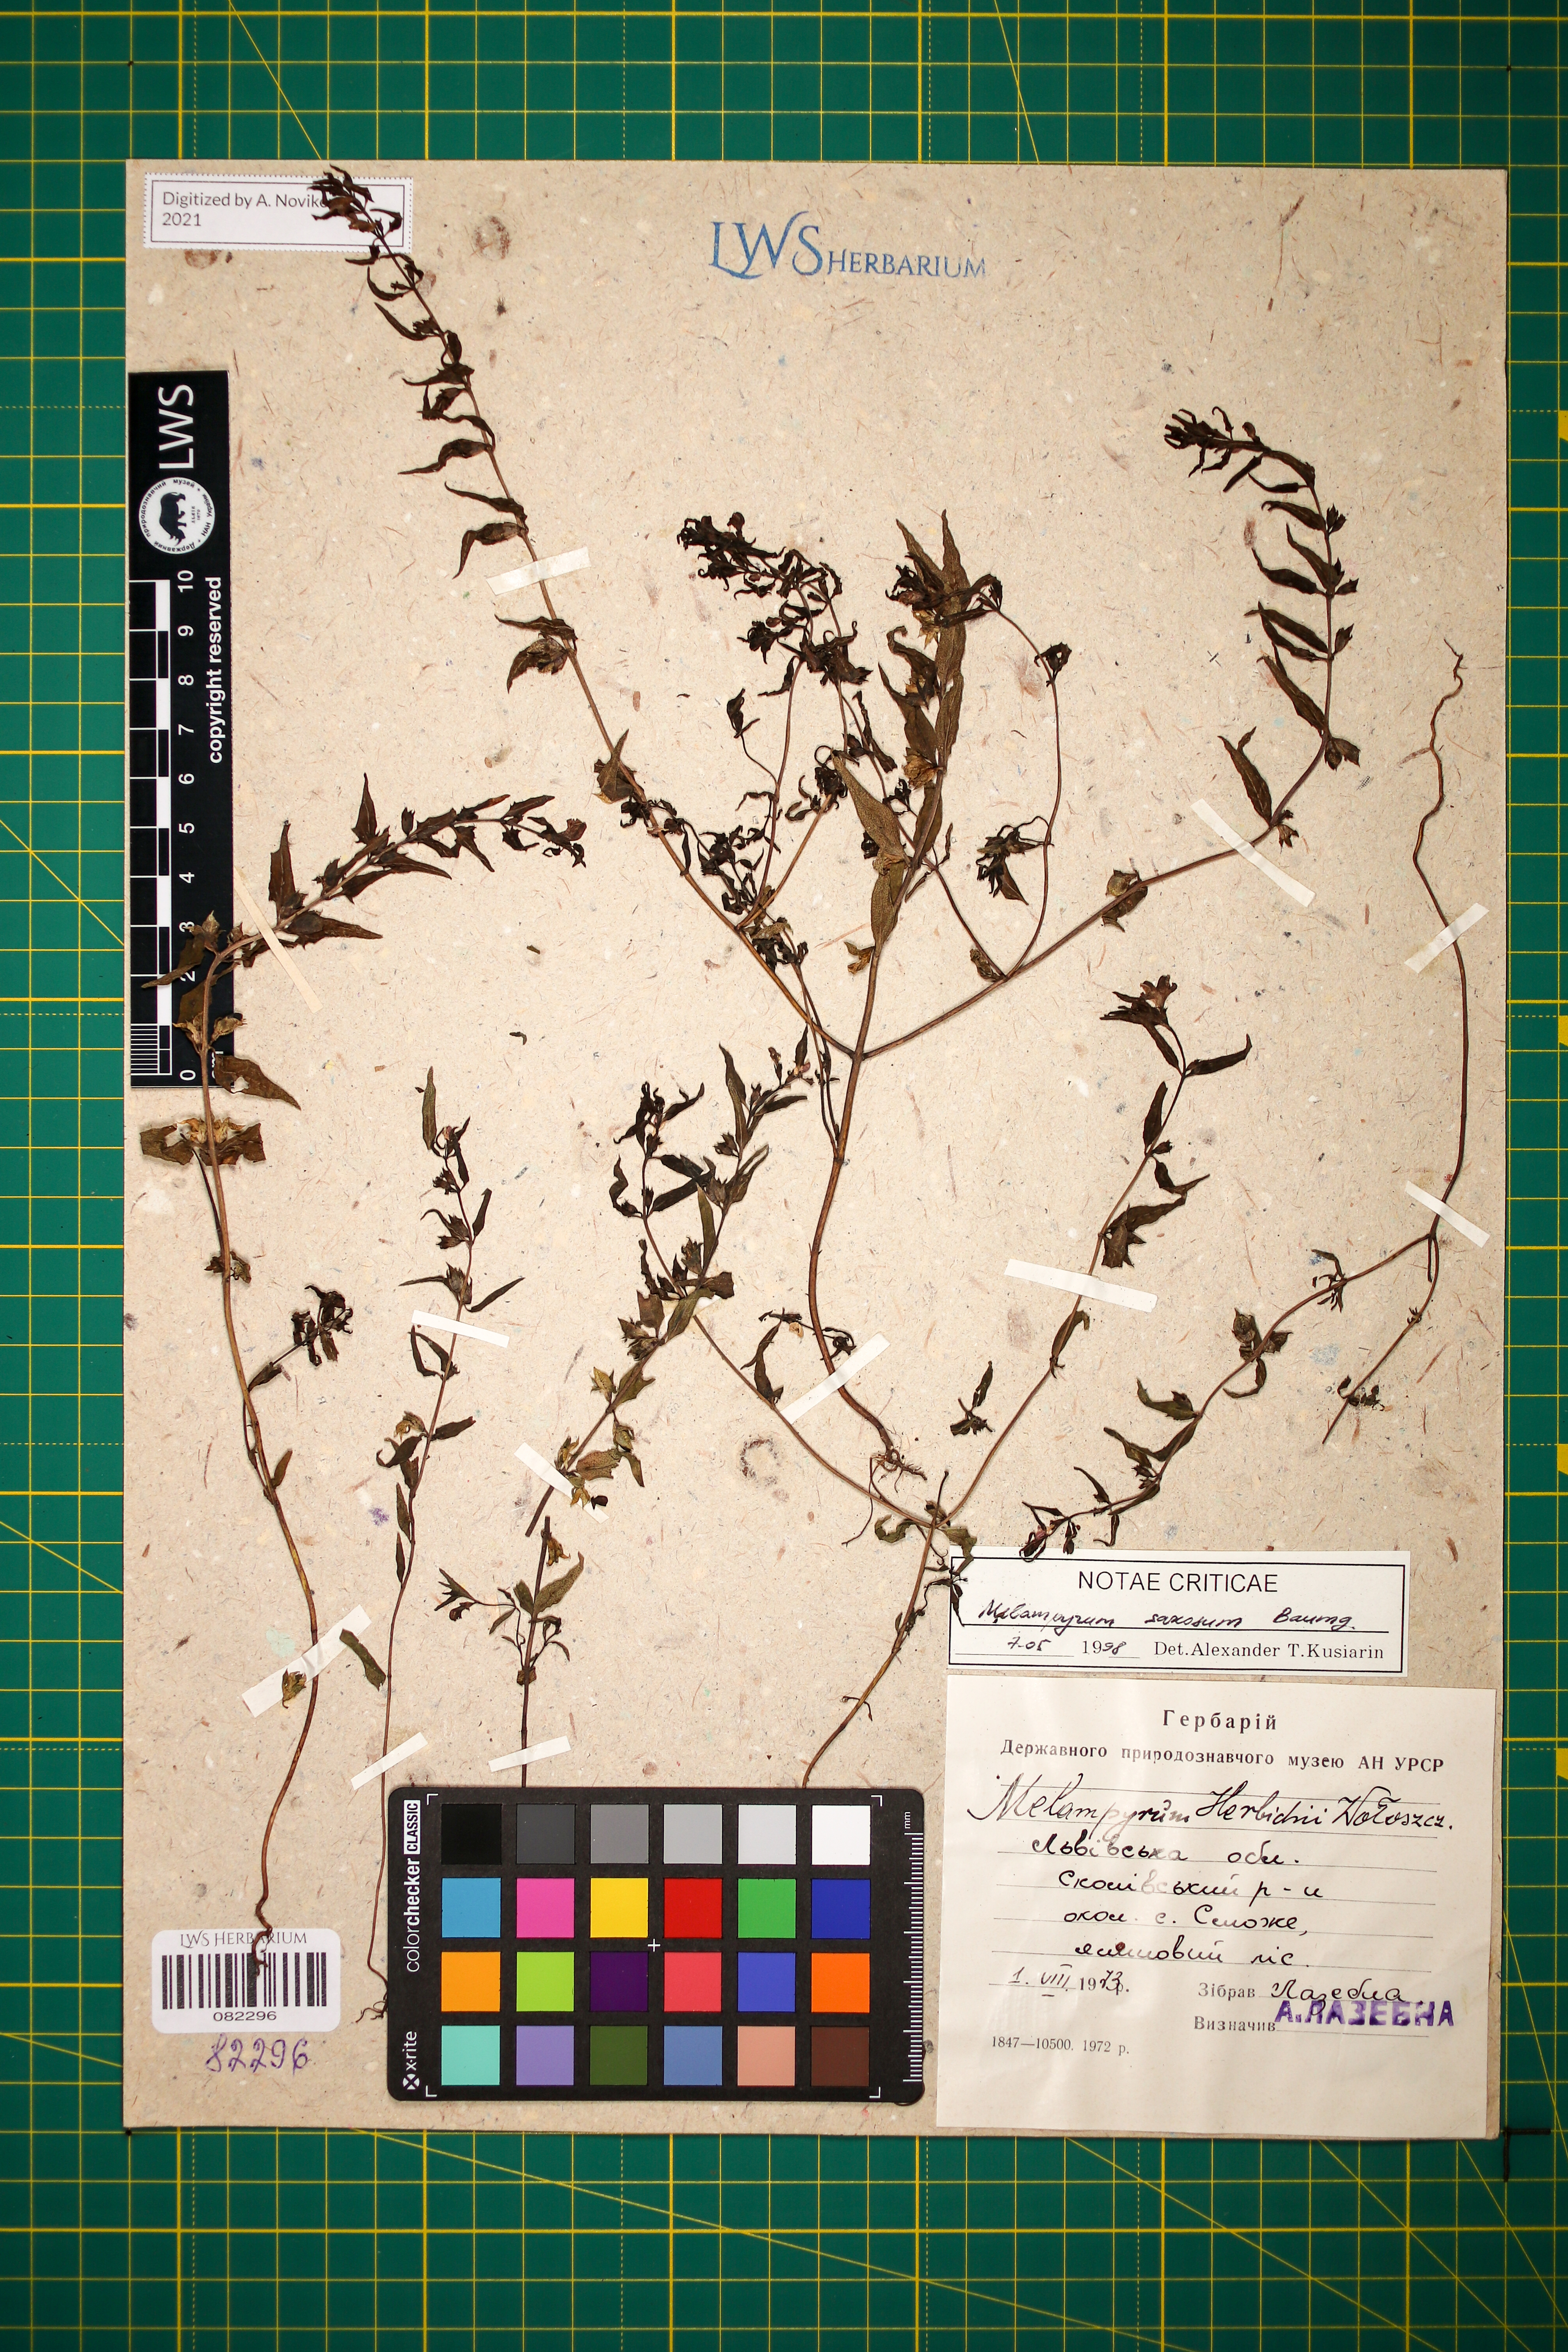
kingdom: Plantae
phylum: Tracheophyta
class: Magnoliopsida
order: Lamiales
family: Orobanchaceae
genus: Melampyrum
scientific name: Melampyrum saxosum
